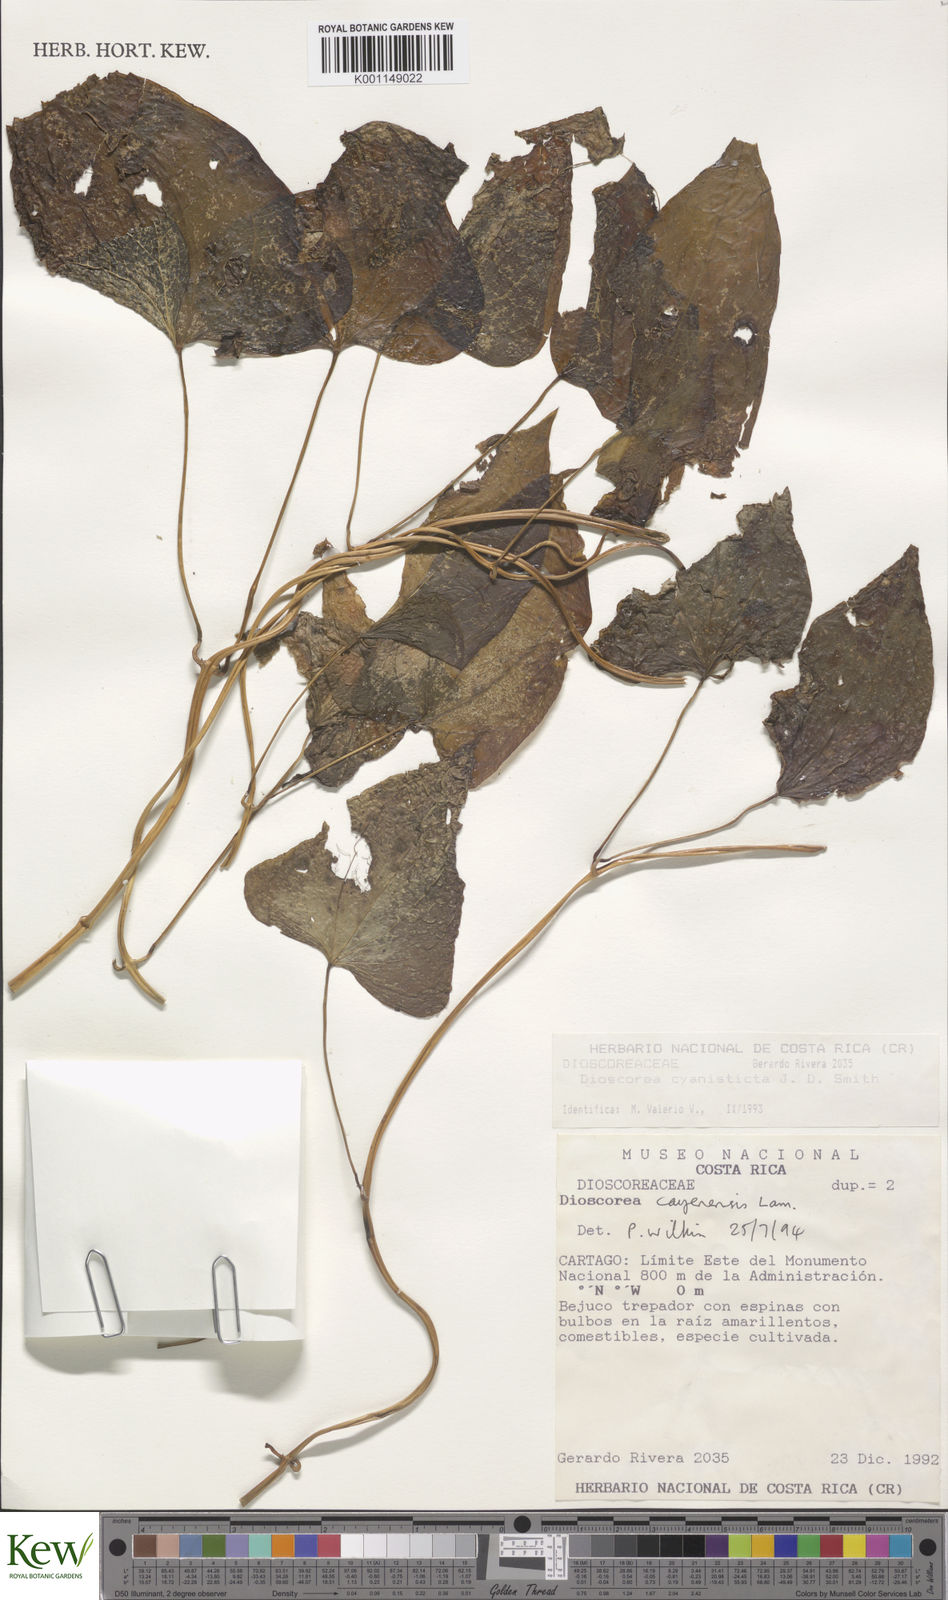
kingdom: Plantae
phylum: Tracheophyta
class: Liliopsida
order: Dioscoreales
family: Dioscoreaceae
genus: Dioscorea
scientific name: Dioscorea cyanisticta
